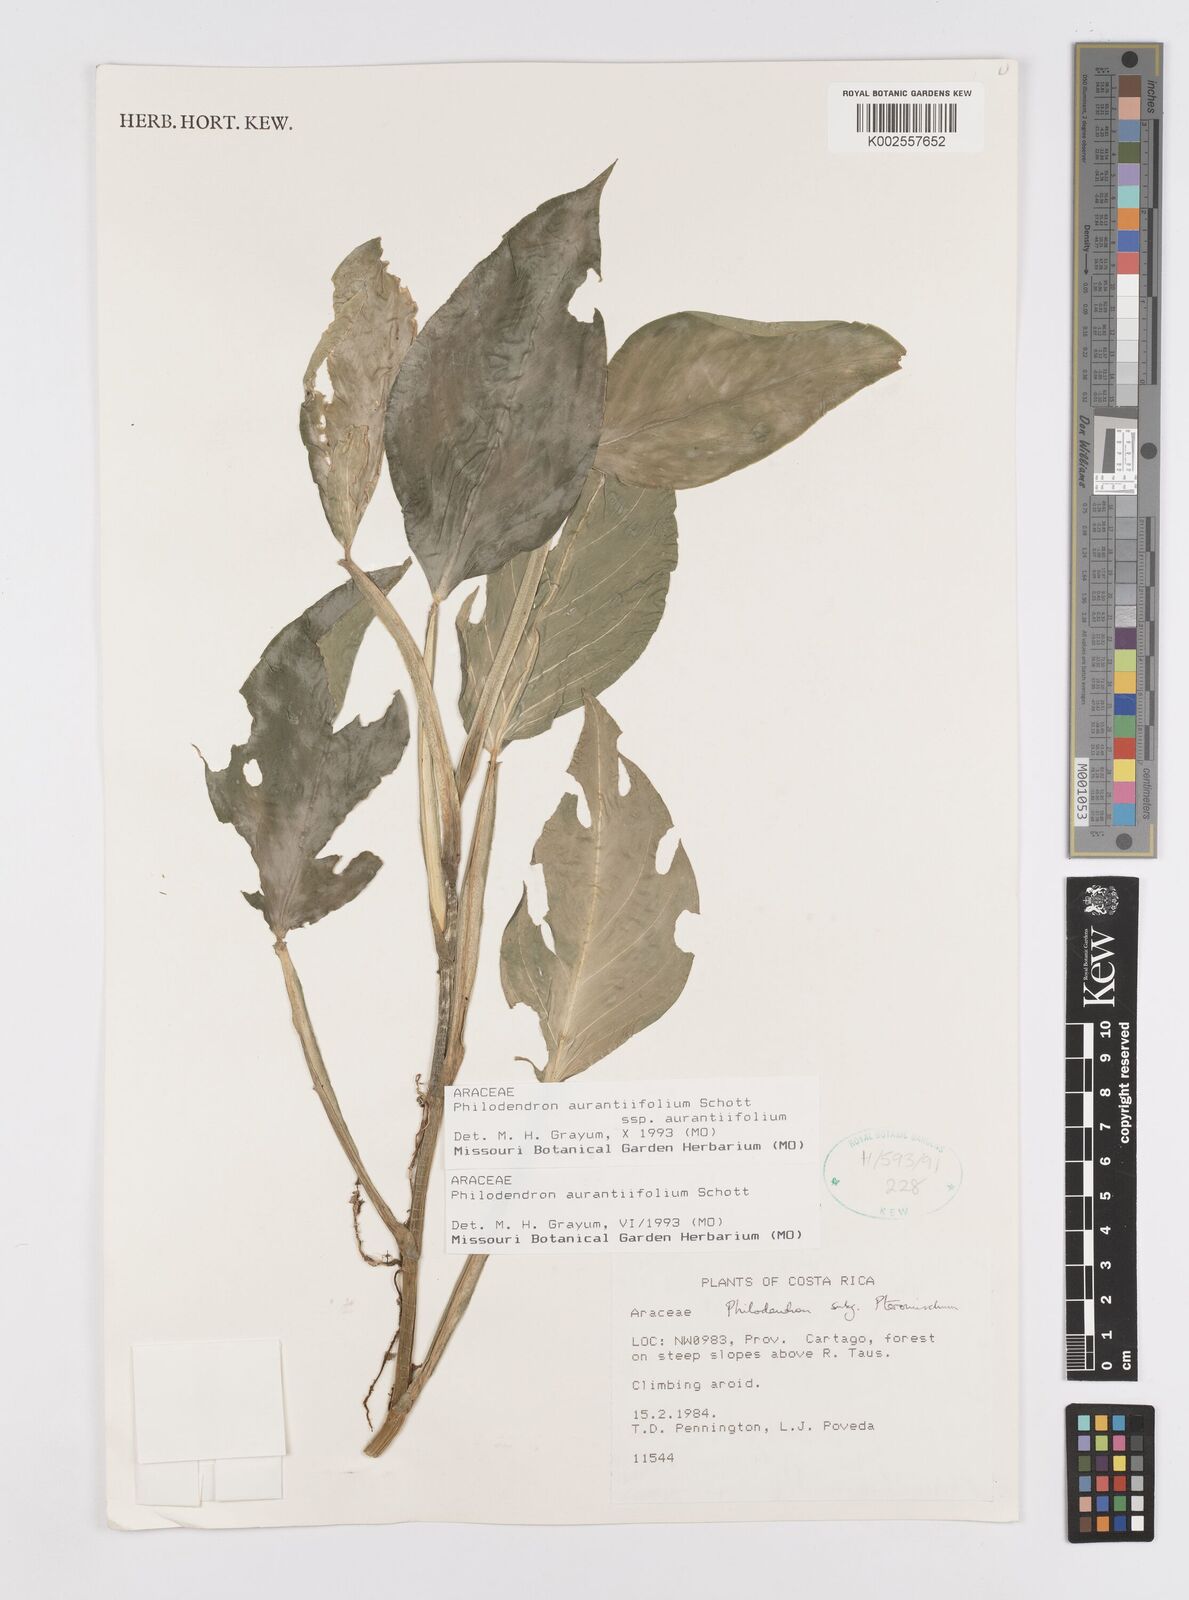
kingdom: Plantae
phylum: Tracheophyta
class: Liliopsida
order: Alismatales
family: Araceae
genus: Philodendron
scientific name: Philodendron aurantiifolium
